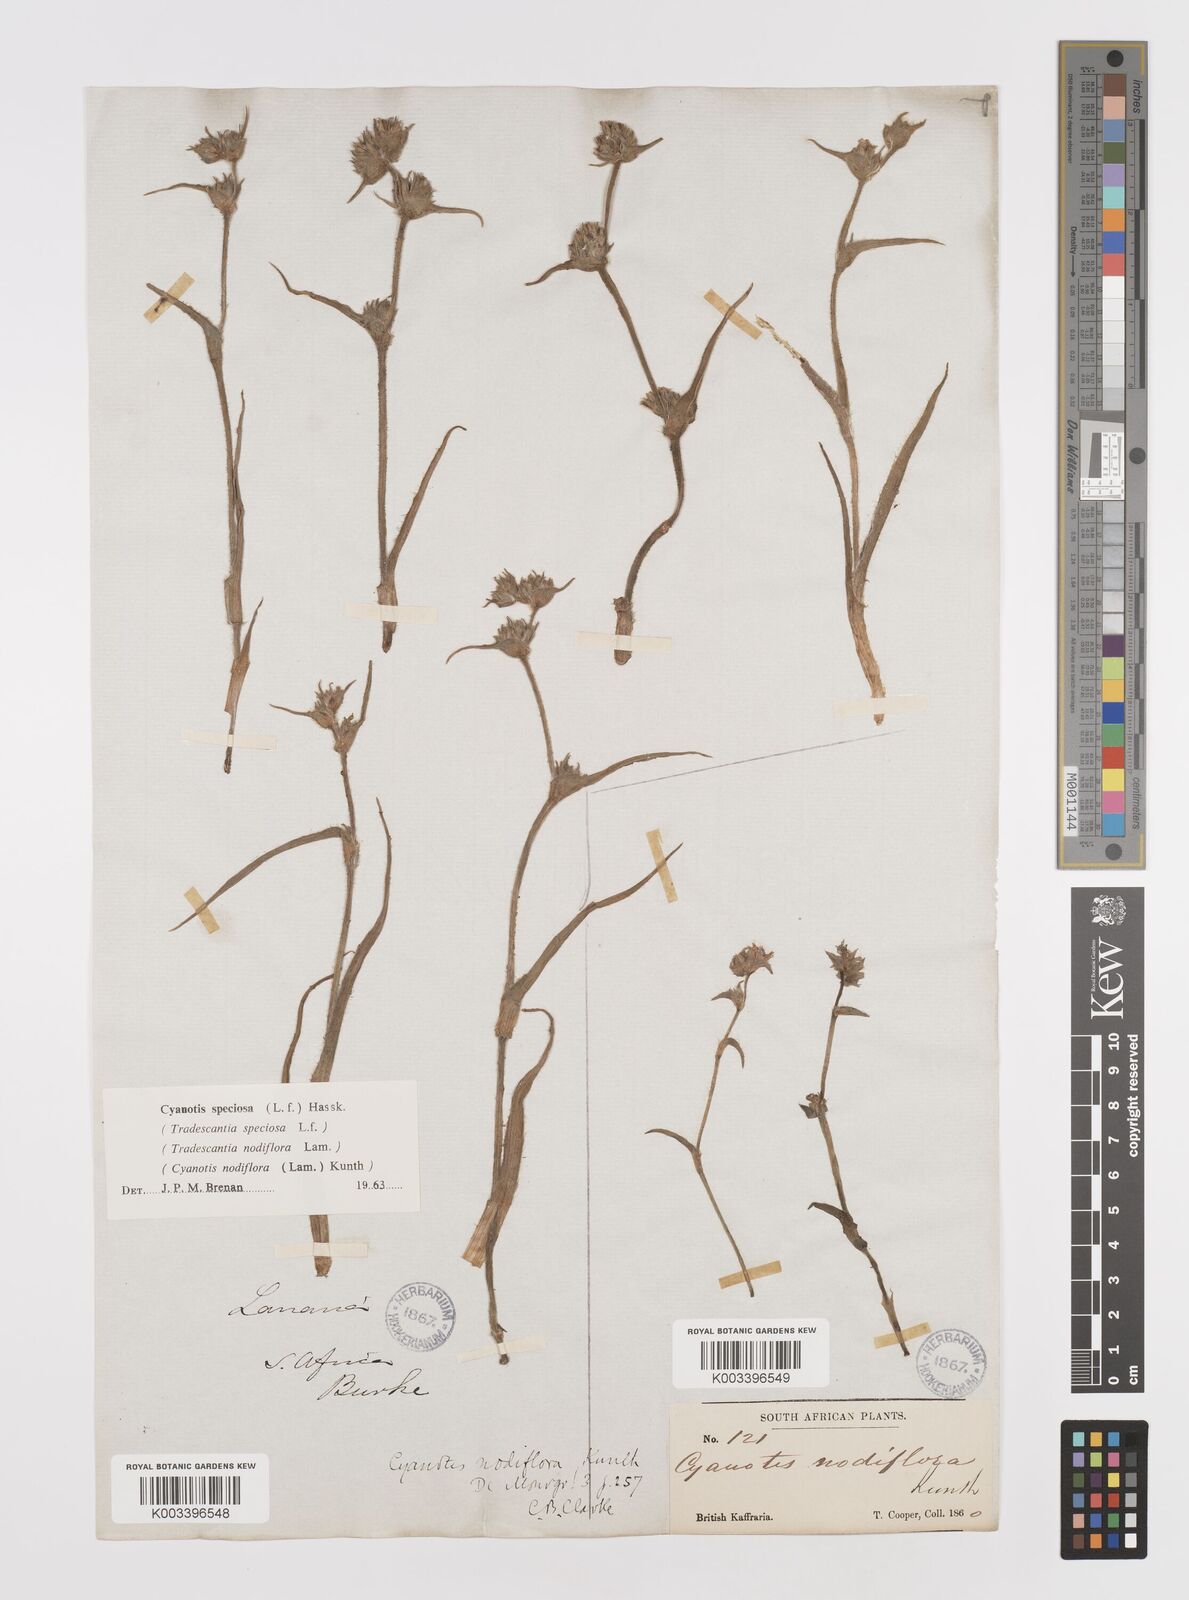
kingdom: Plantae
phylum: Tracheophyta
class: Liliopsida
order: Commelinales
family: Commelinaceae
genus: Cyanotis
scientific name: Cyanotis speciosa
